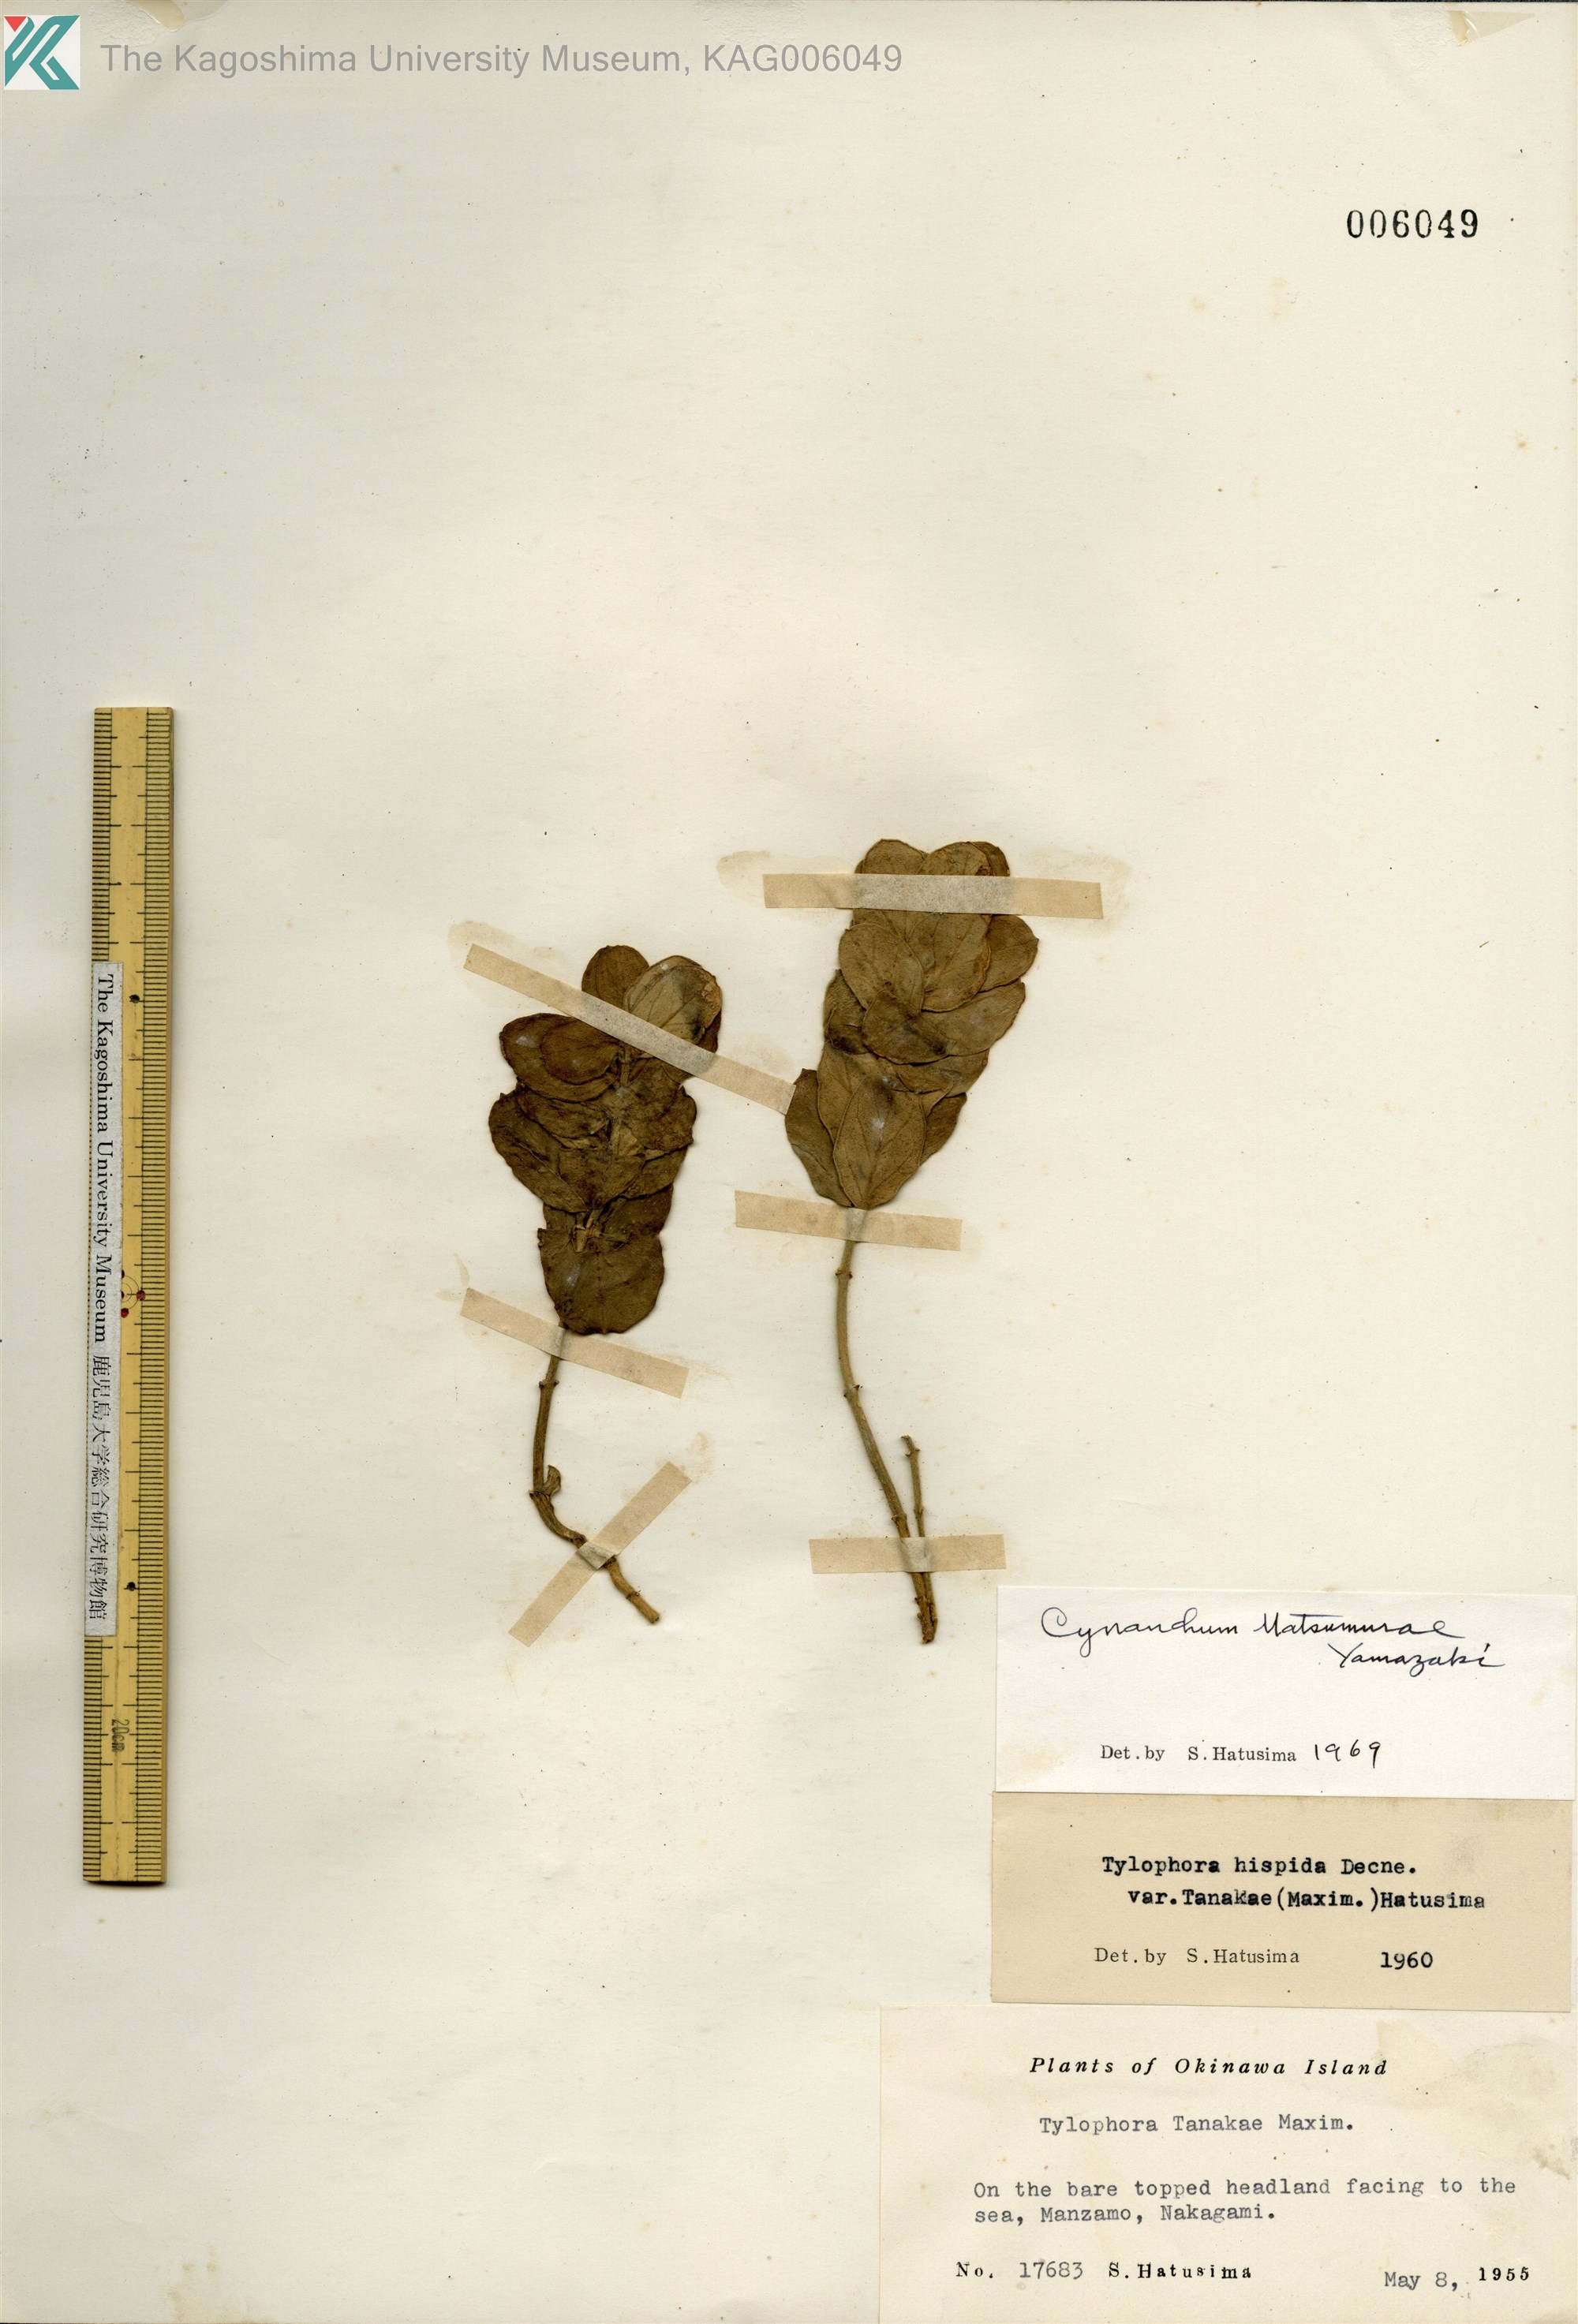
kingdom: Plantae
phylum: Tracheophyta
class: Magnoliopsida
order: Gentianales
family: Apocynaceae
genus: Vincetoxicum
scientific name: Vincetoxicum matsumurae
